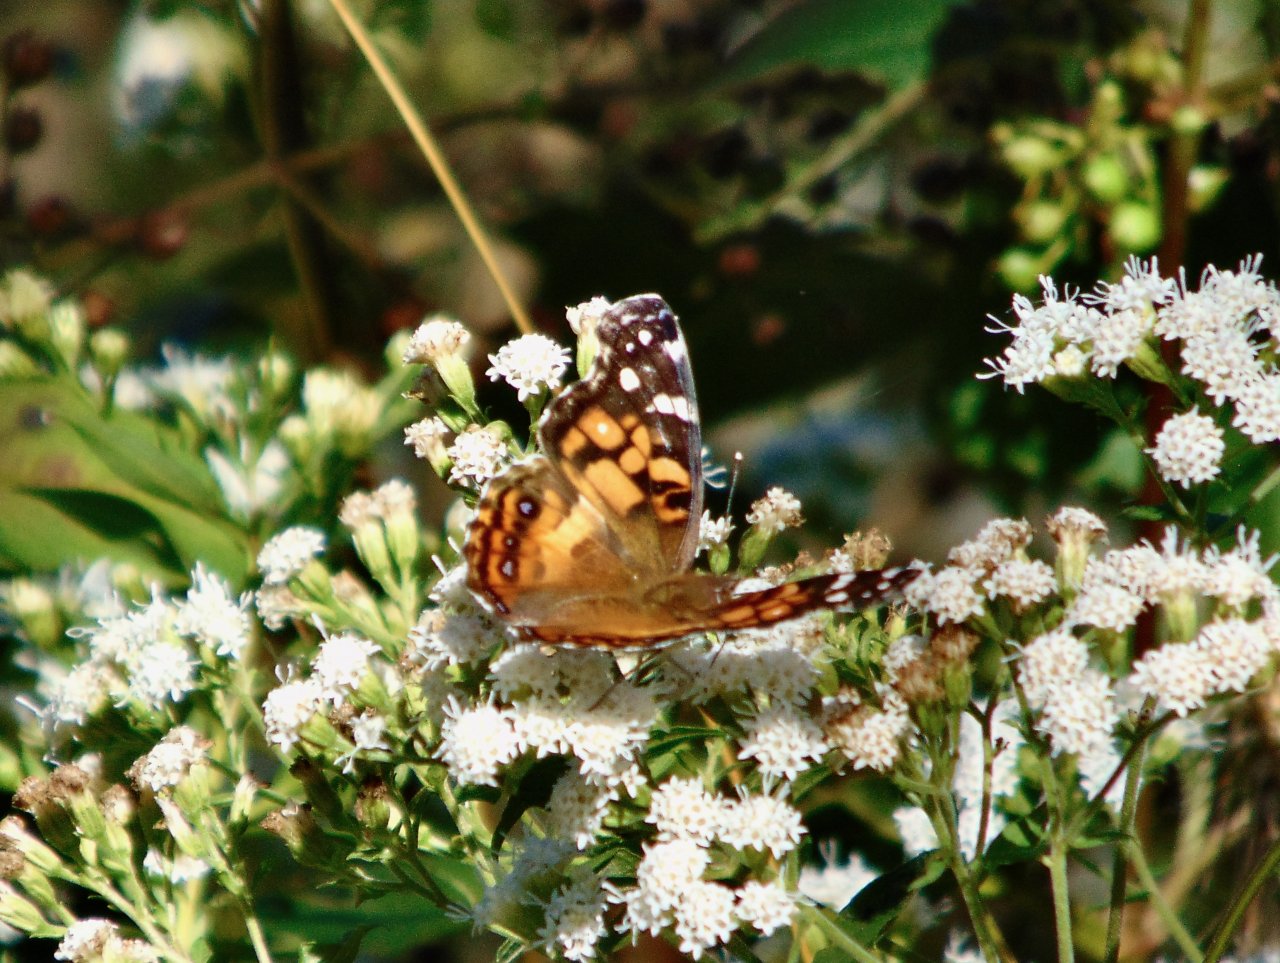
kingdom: Animalia
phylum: Arthropoda
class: Insecta
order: Lepidoptera
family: Nymphalidae
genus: Vanessa
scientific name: Vanessa virginiensis
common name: American Lady
